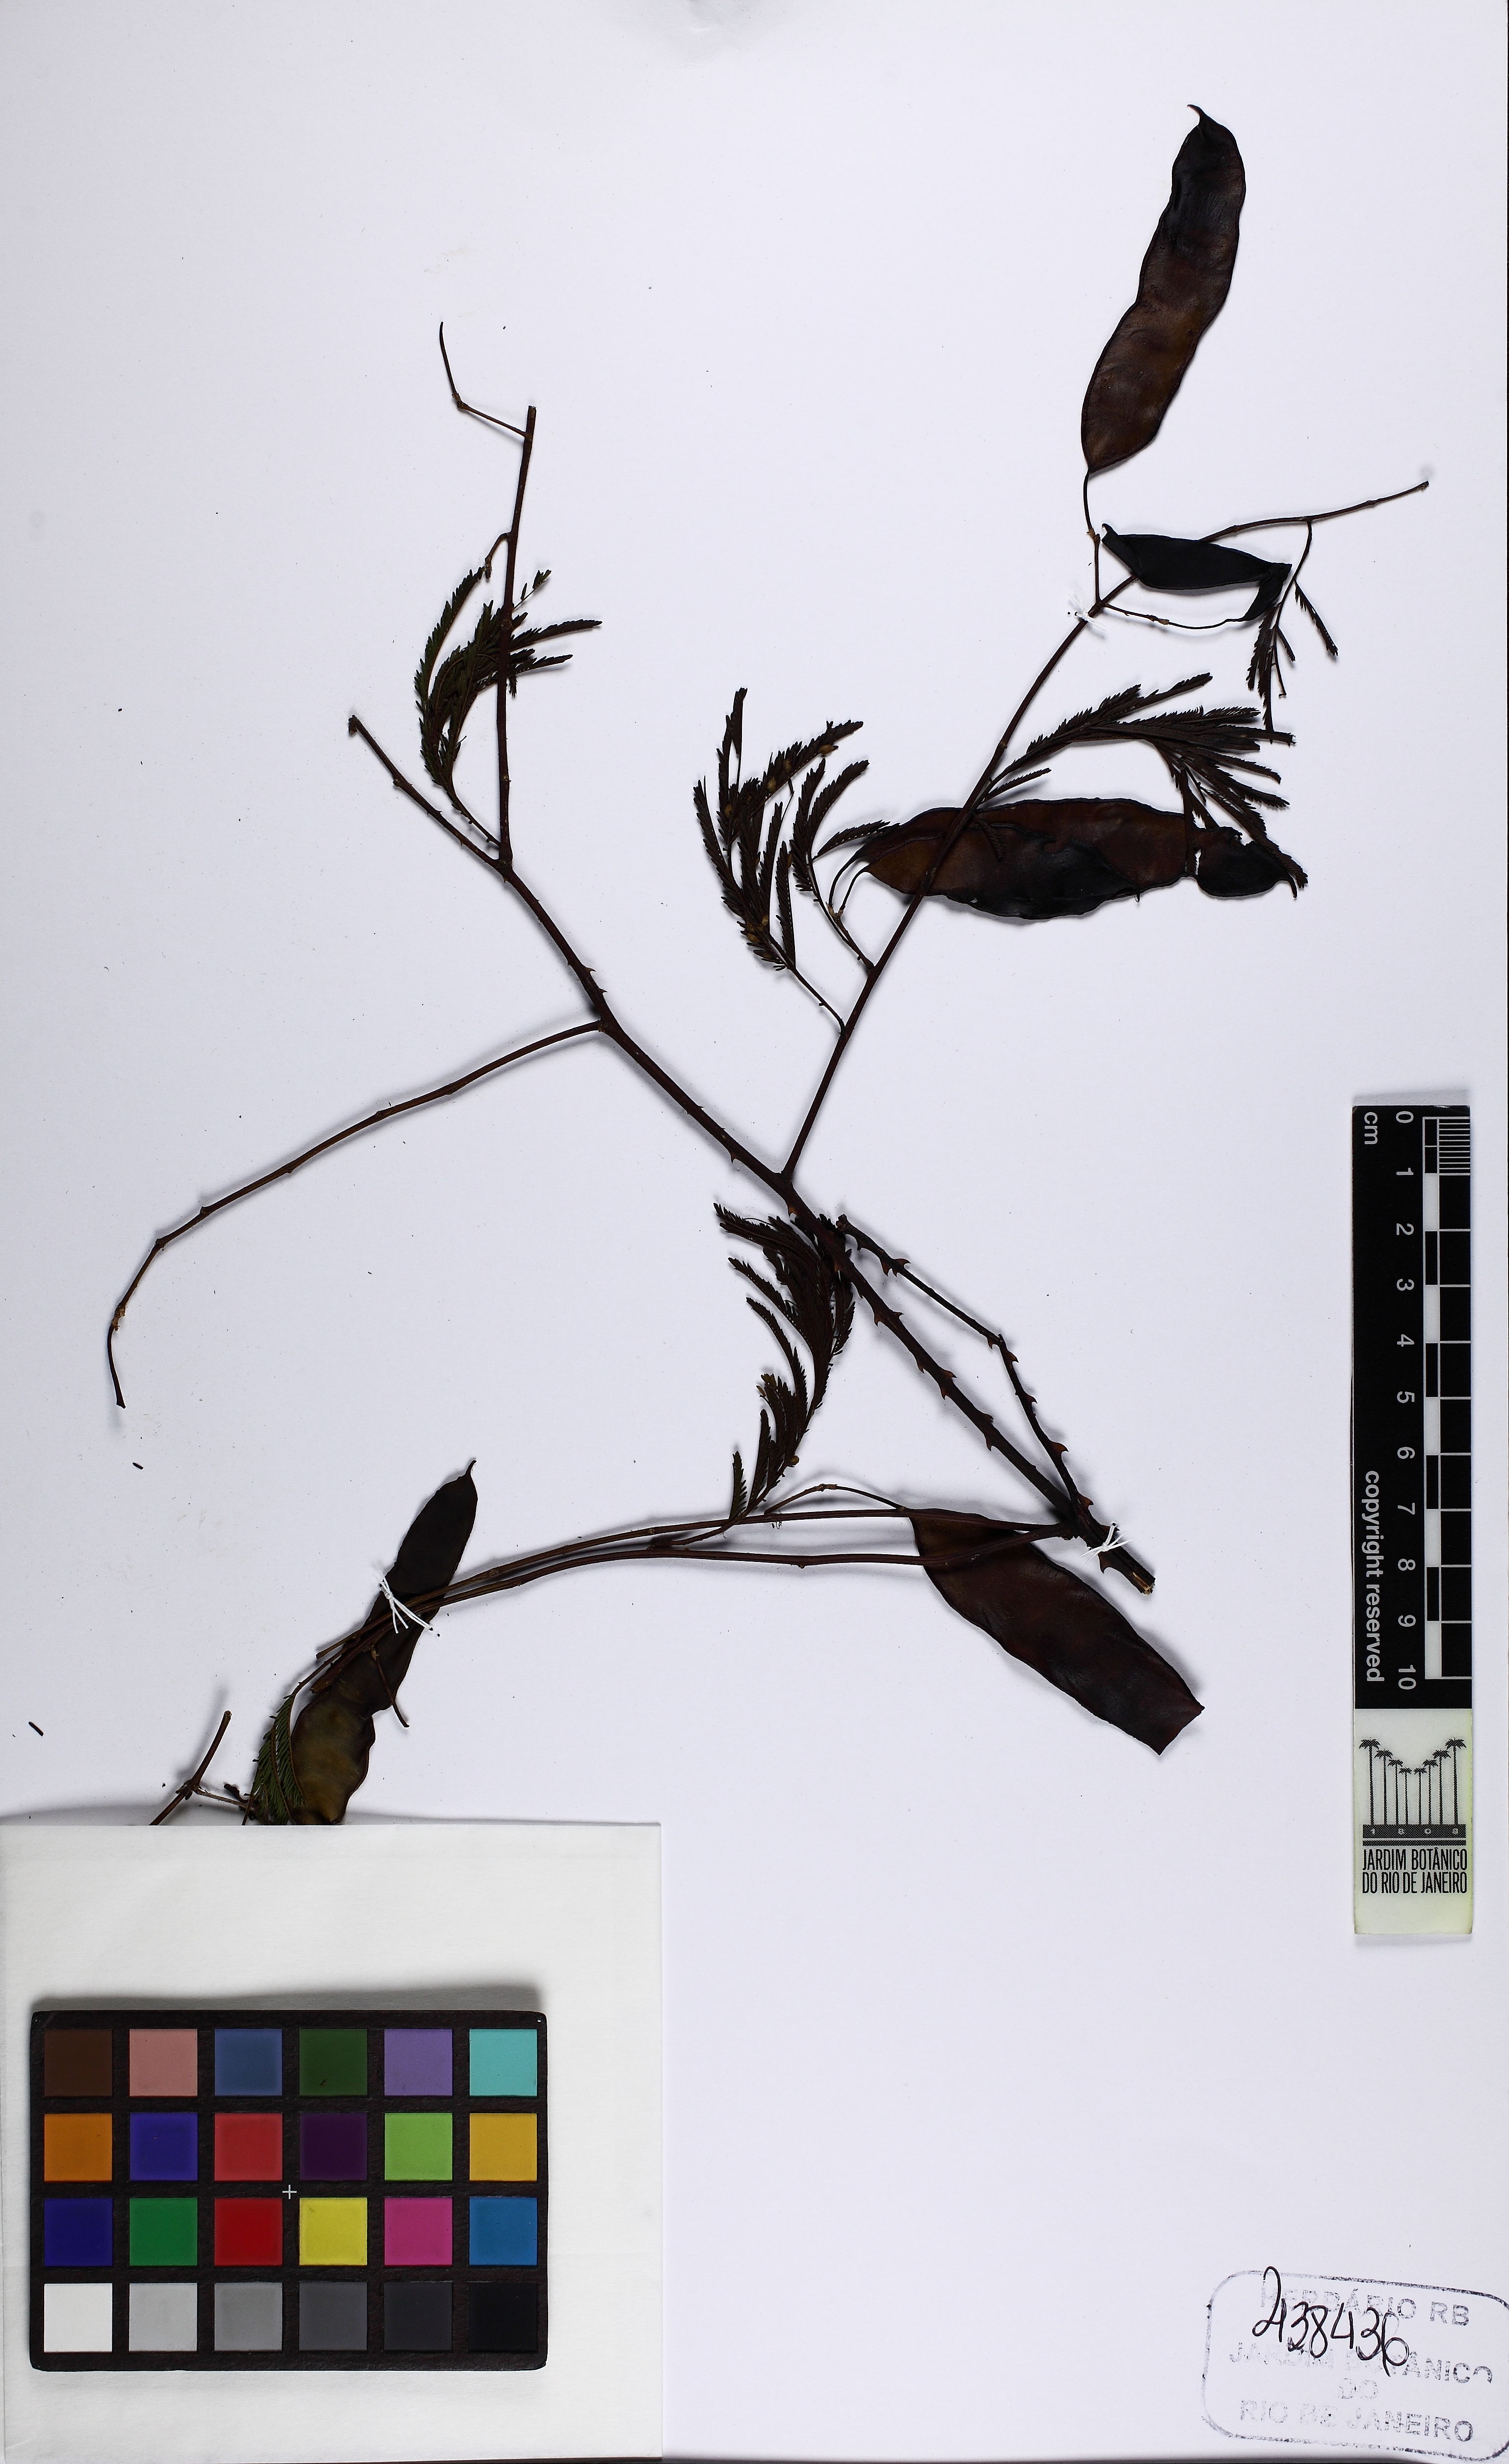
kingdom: Plantae
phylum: Tracheophyta
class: Magnoliopsida
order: Fabales
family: Fabaceae
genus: Senegalia
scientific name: Senegalia hatschbachii
